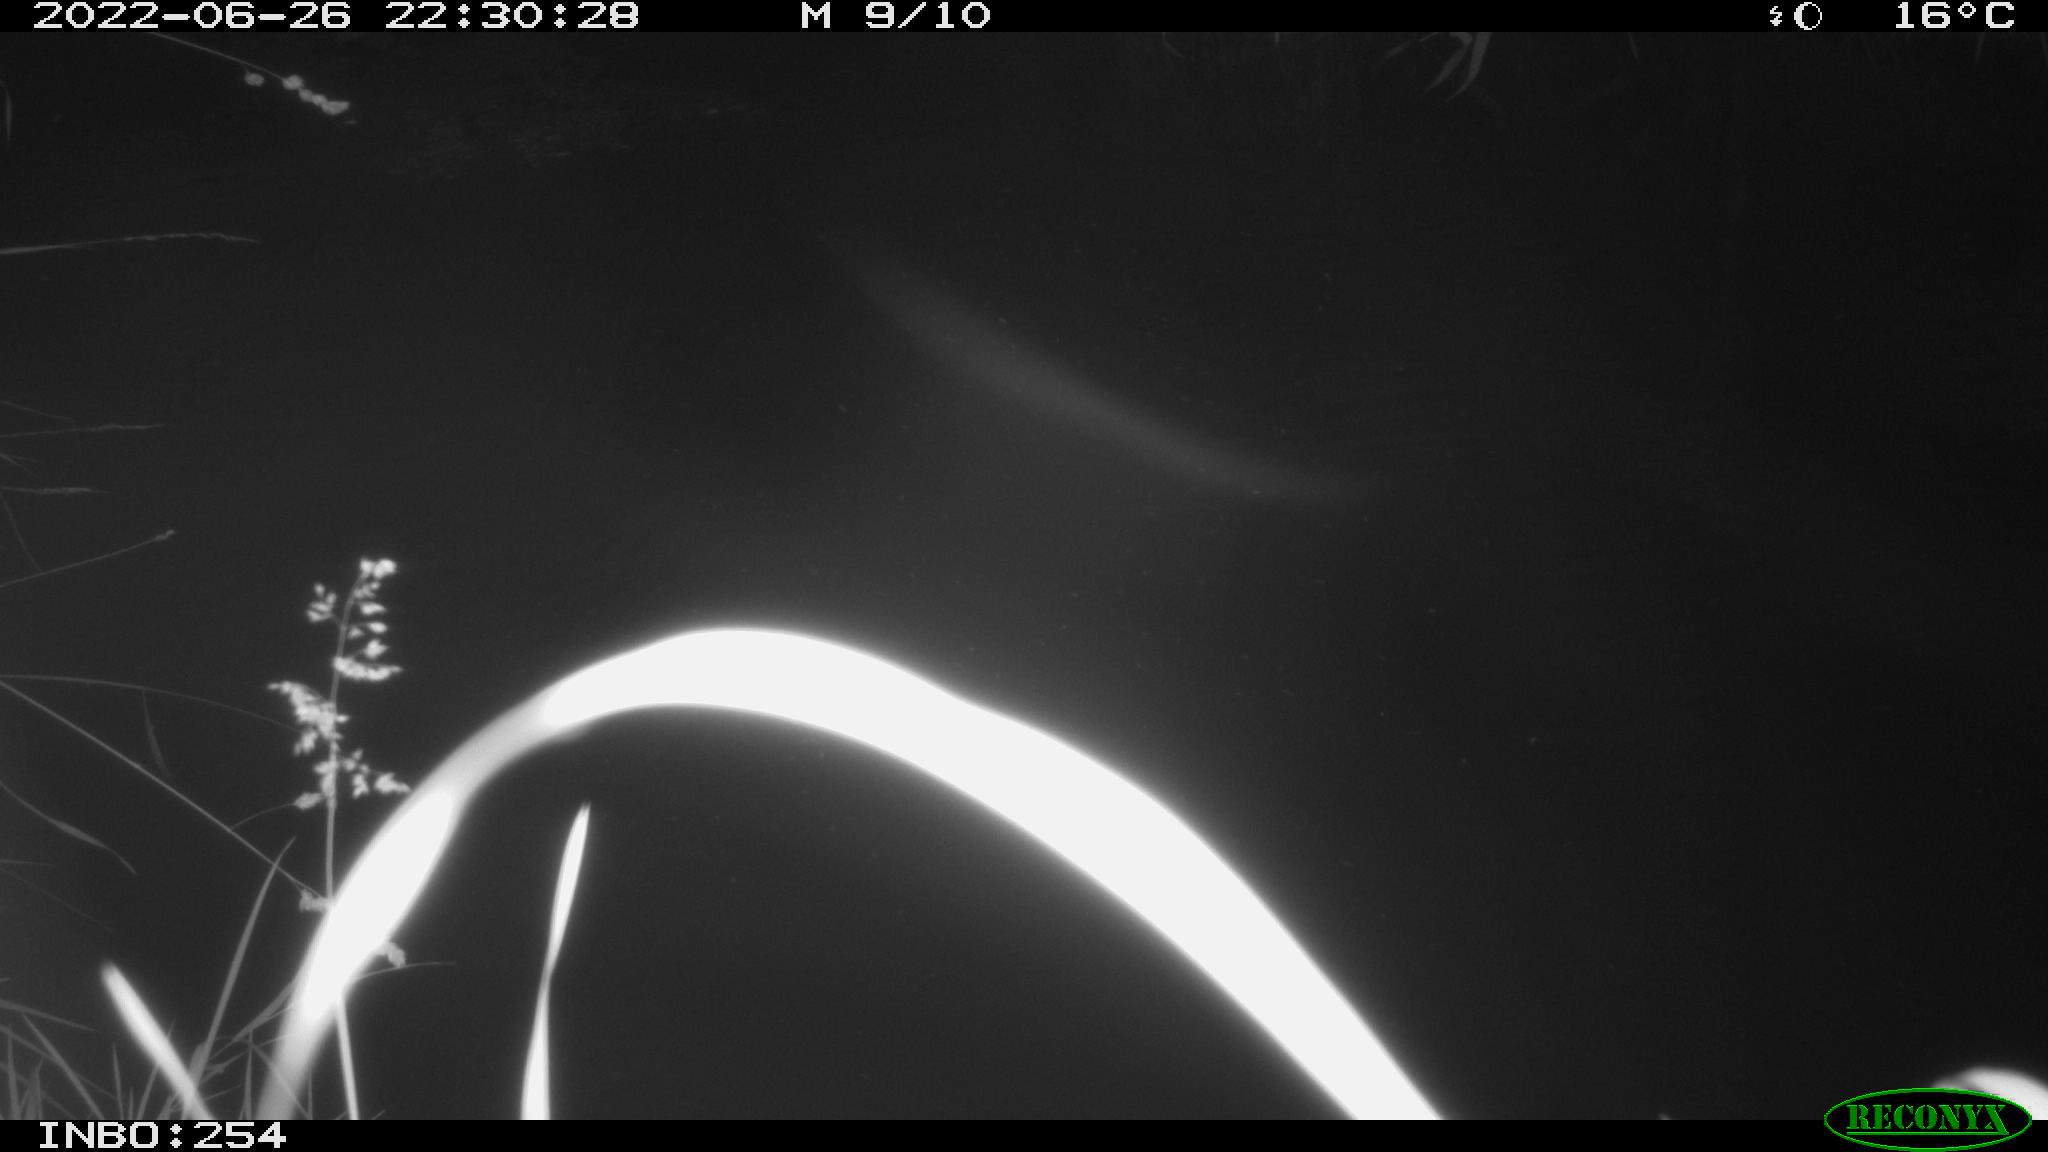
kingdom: Animalia
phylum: Chordata
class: Aves
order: Anseriformes
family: Anatidae
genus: Anas
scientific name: Anas platyrhynchos
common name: Mallard
